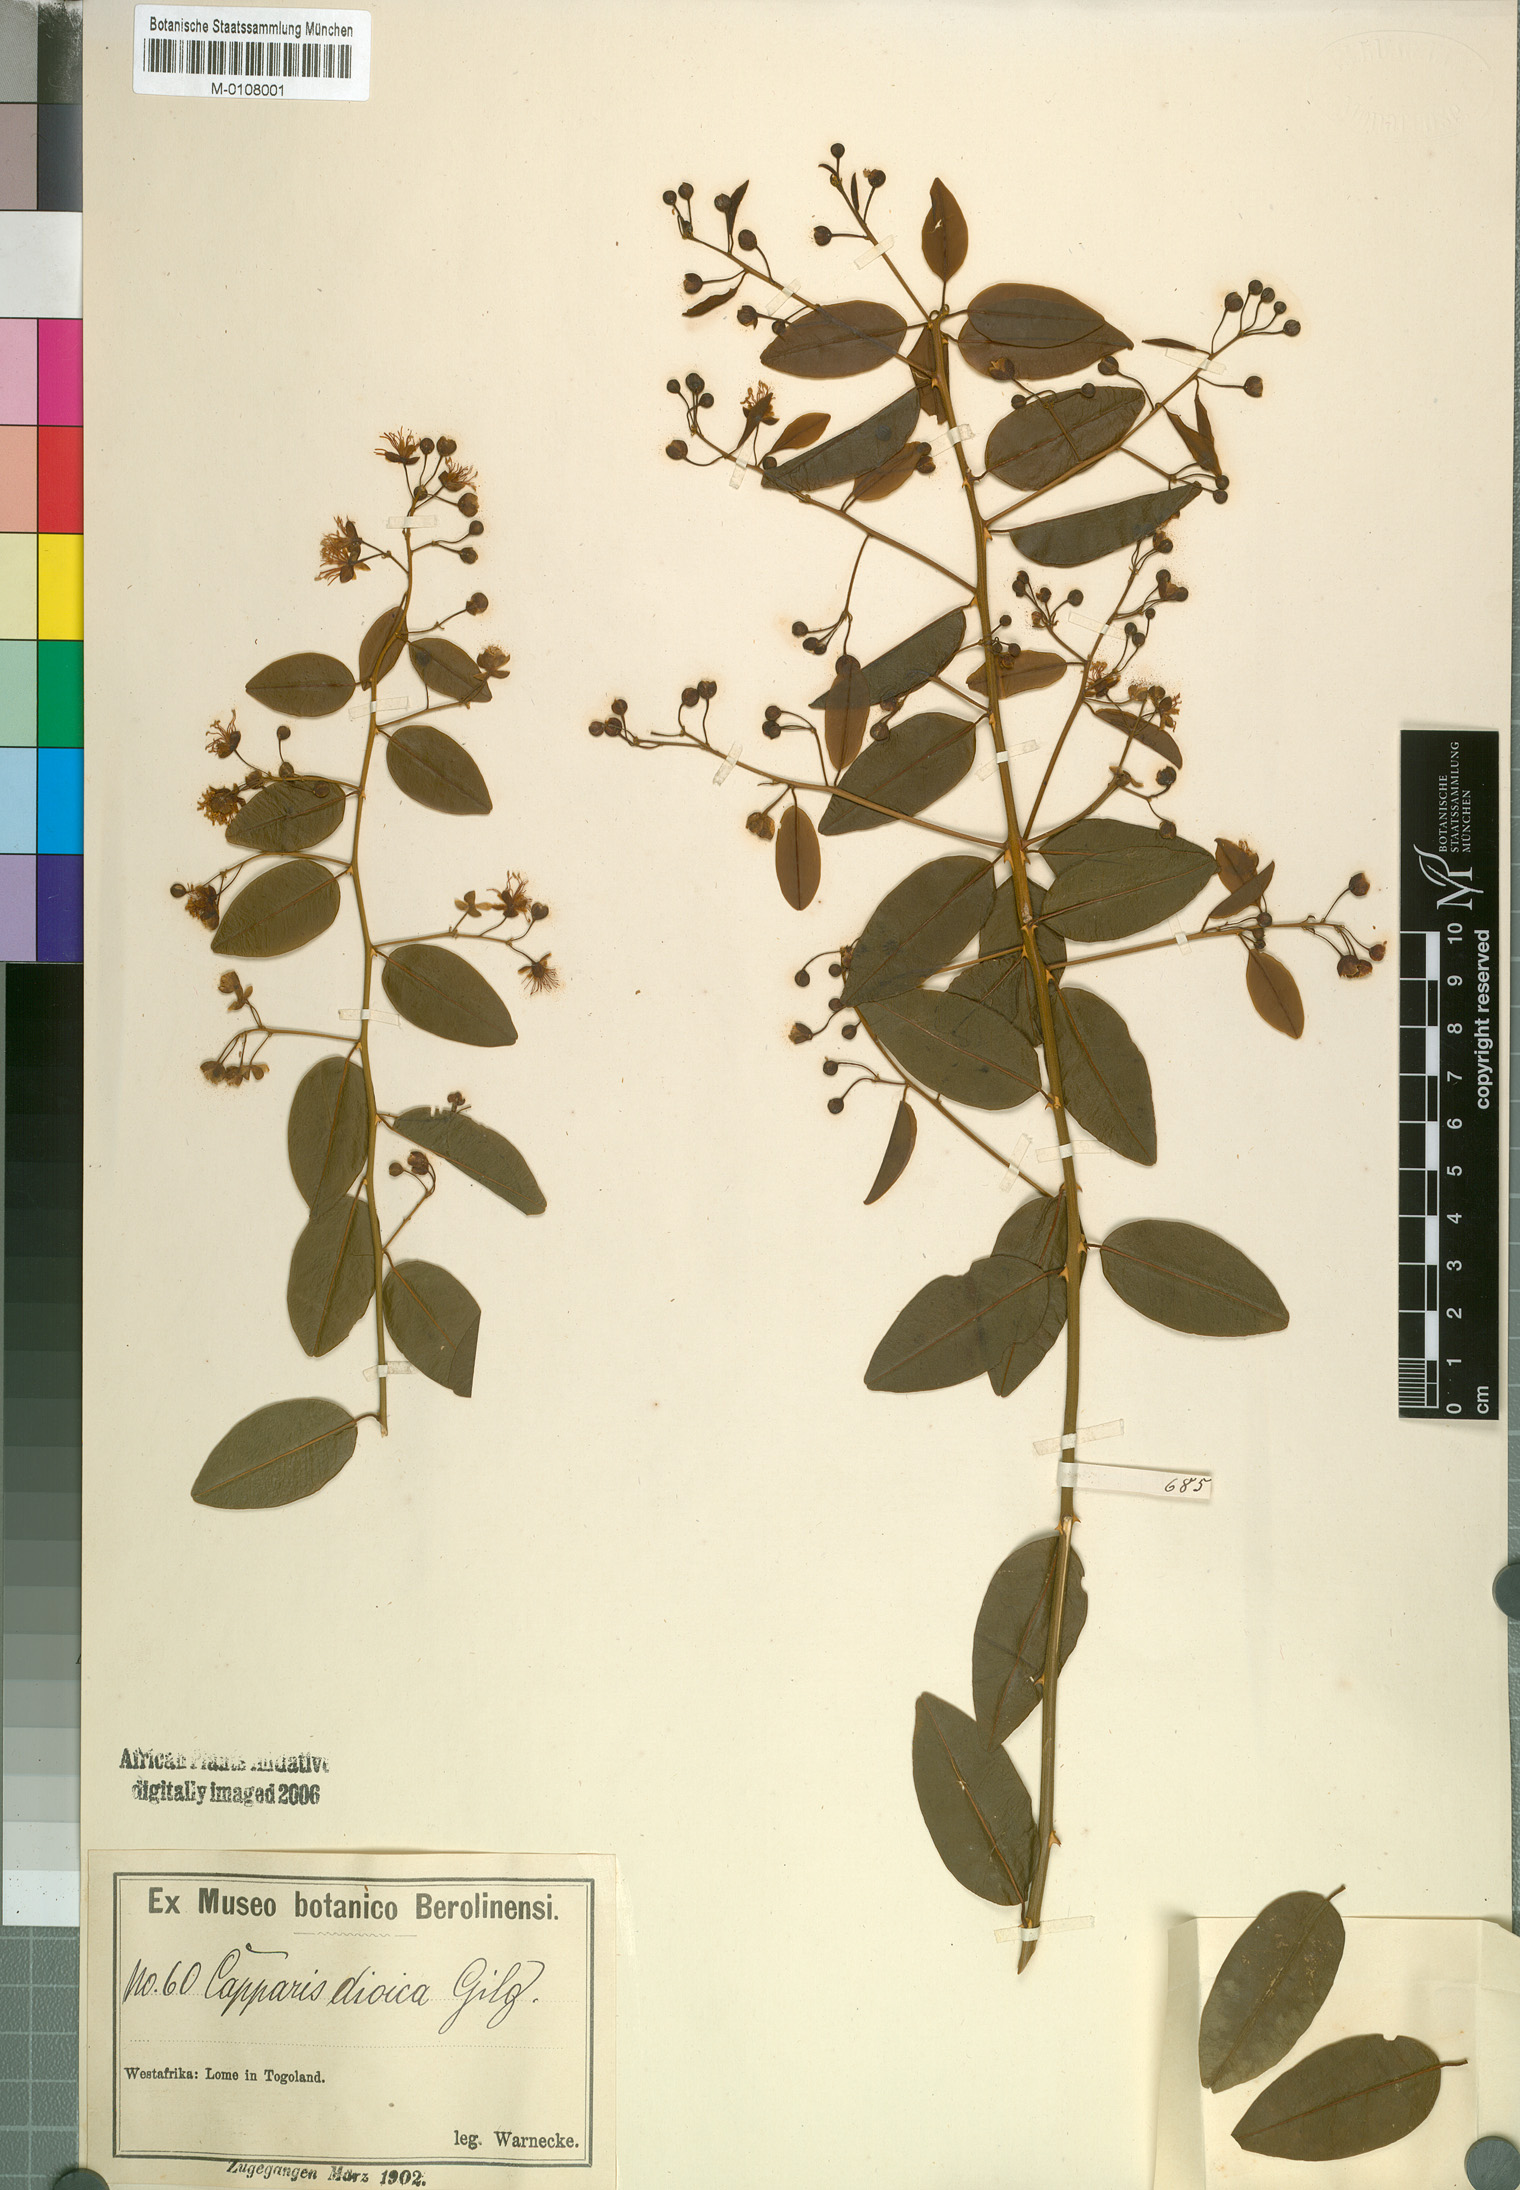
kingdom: Plantae
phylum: Tracheophyta
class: Magnoliopsida
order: Brassicales
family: Capparaceae
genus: Capparis
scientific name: Capparis brassii
